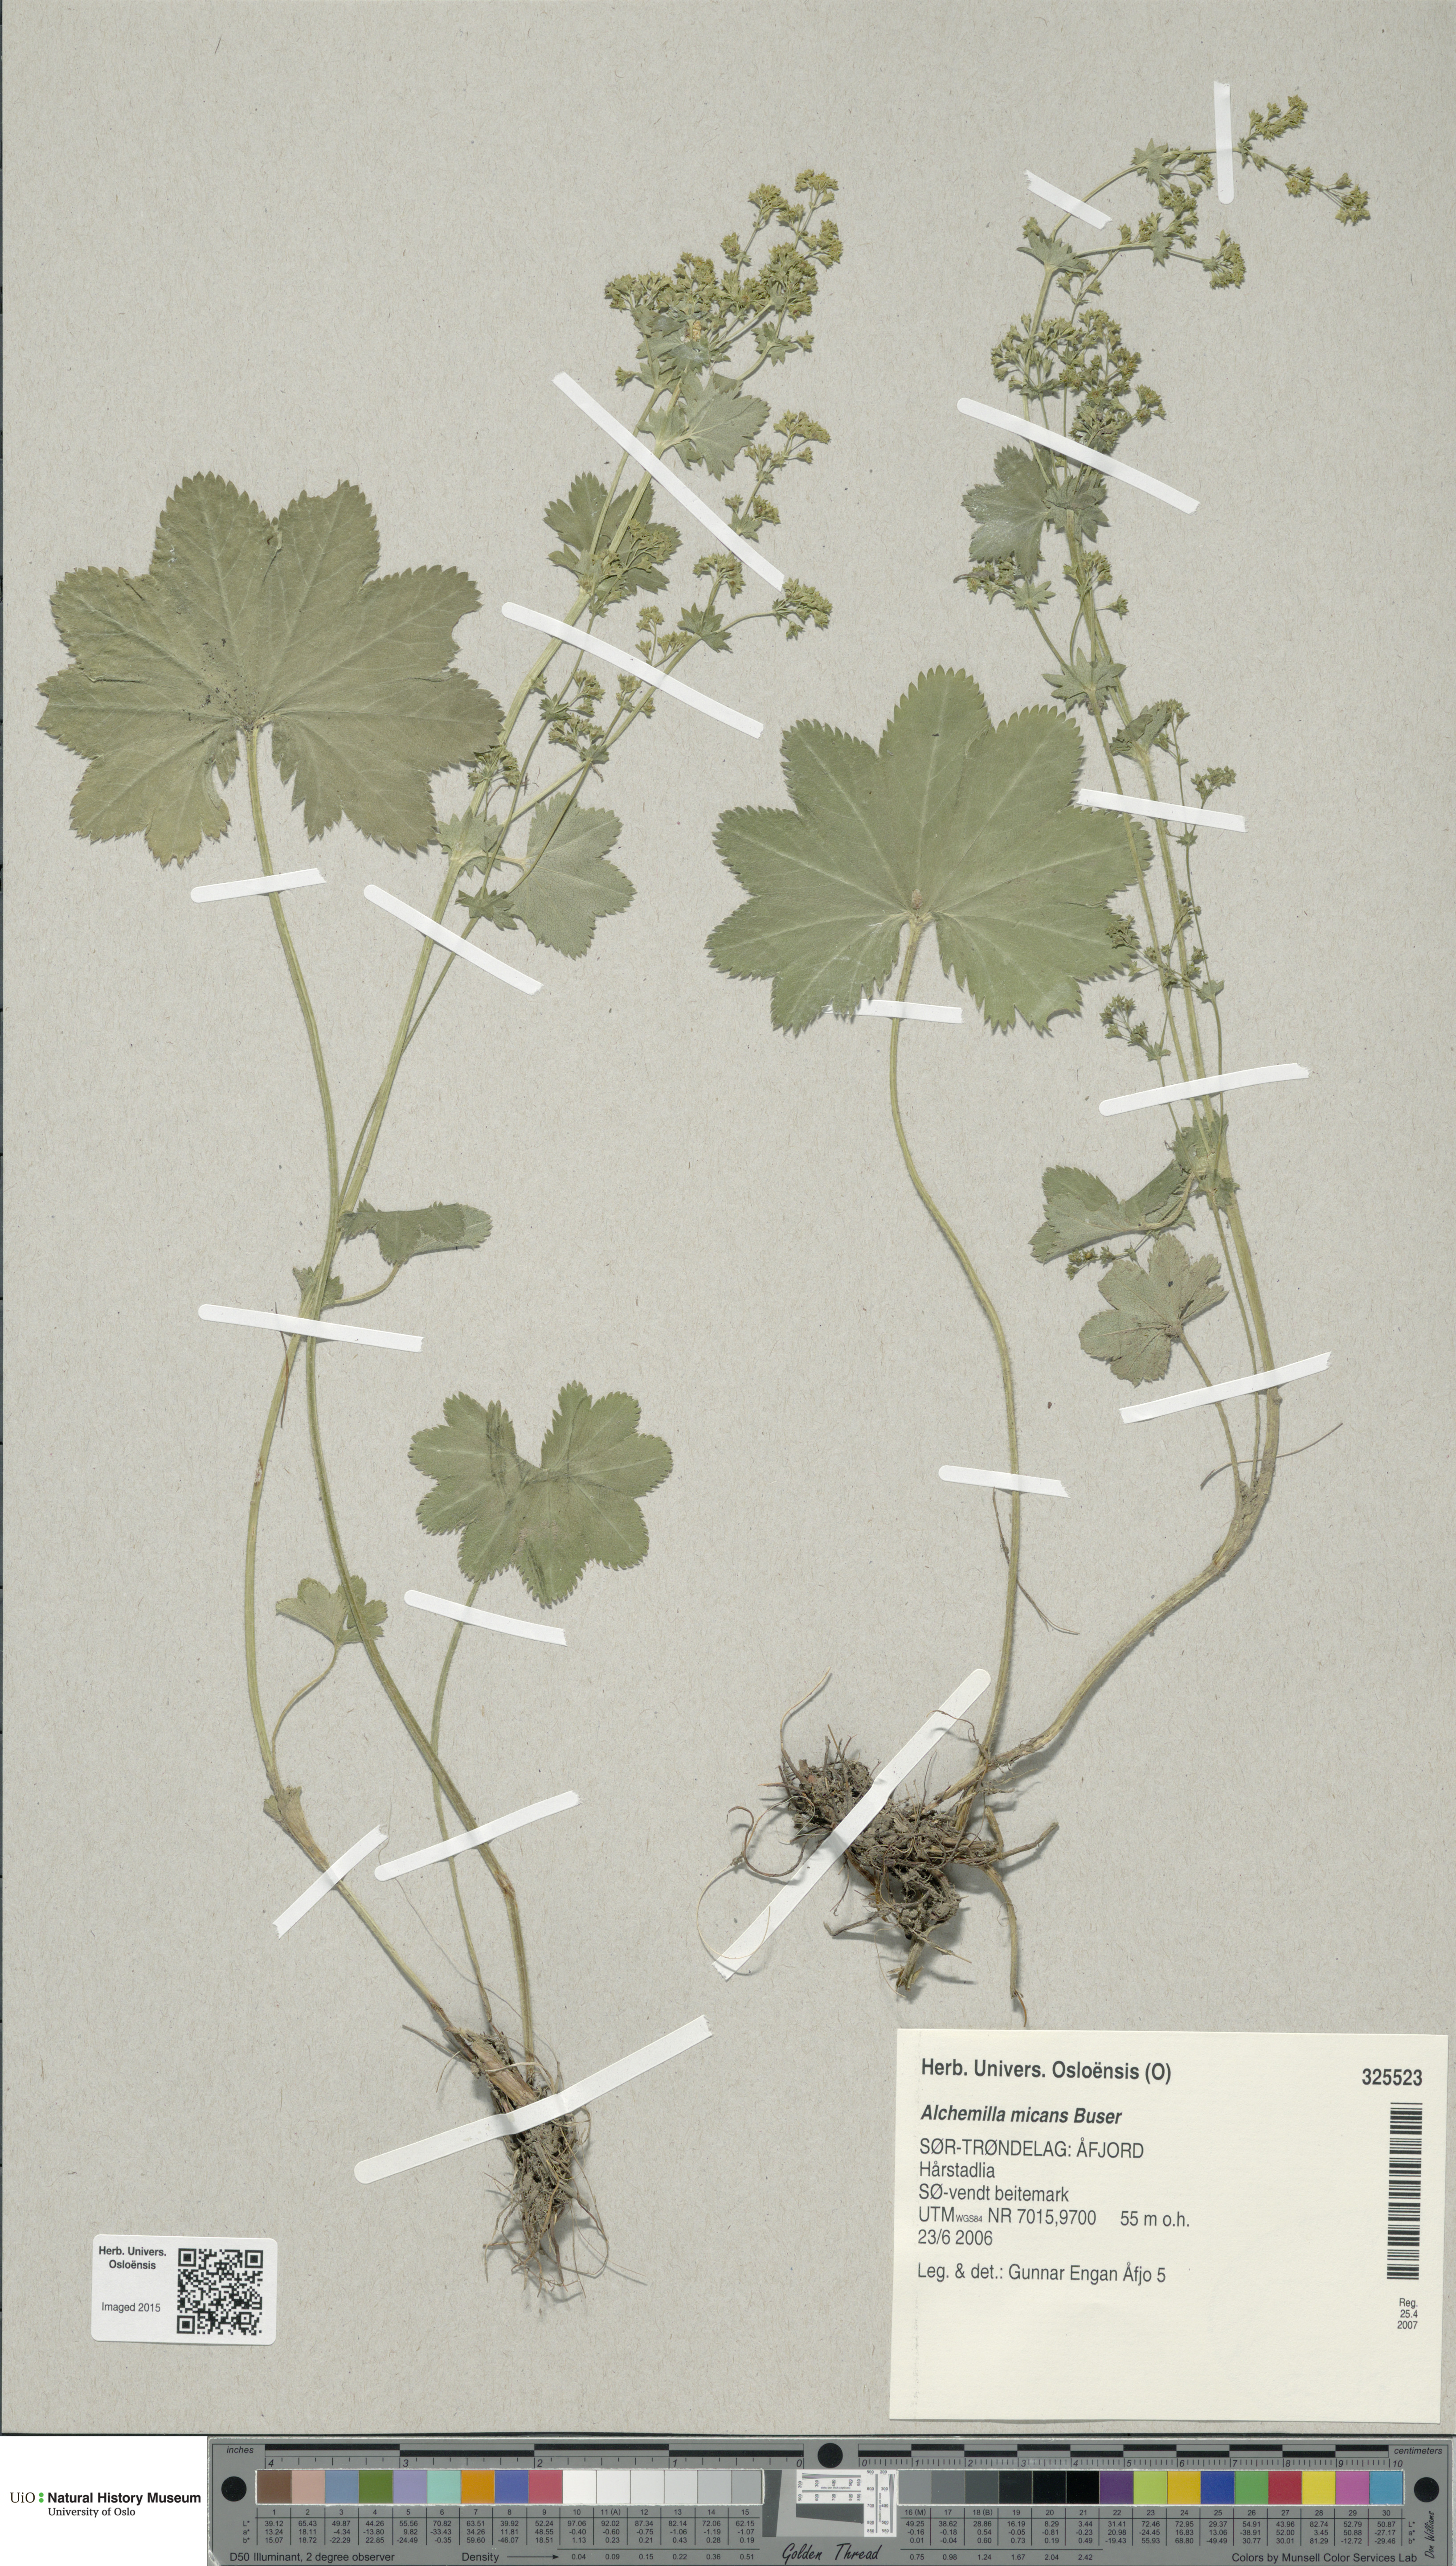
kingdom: Plantae
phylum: Tracheophyta
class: Magnoliopsida
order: Rosales
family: Rosaceae
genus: Alchemilla
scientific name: Alchemilla micans
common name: Gleaming lady's mantle
